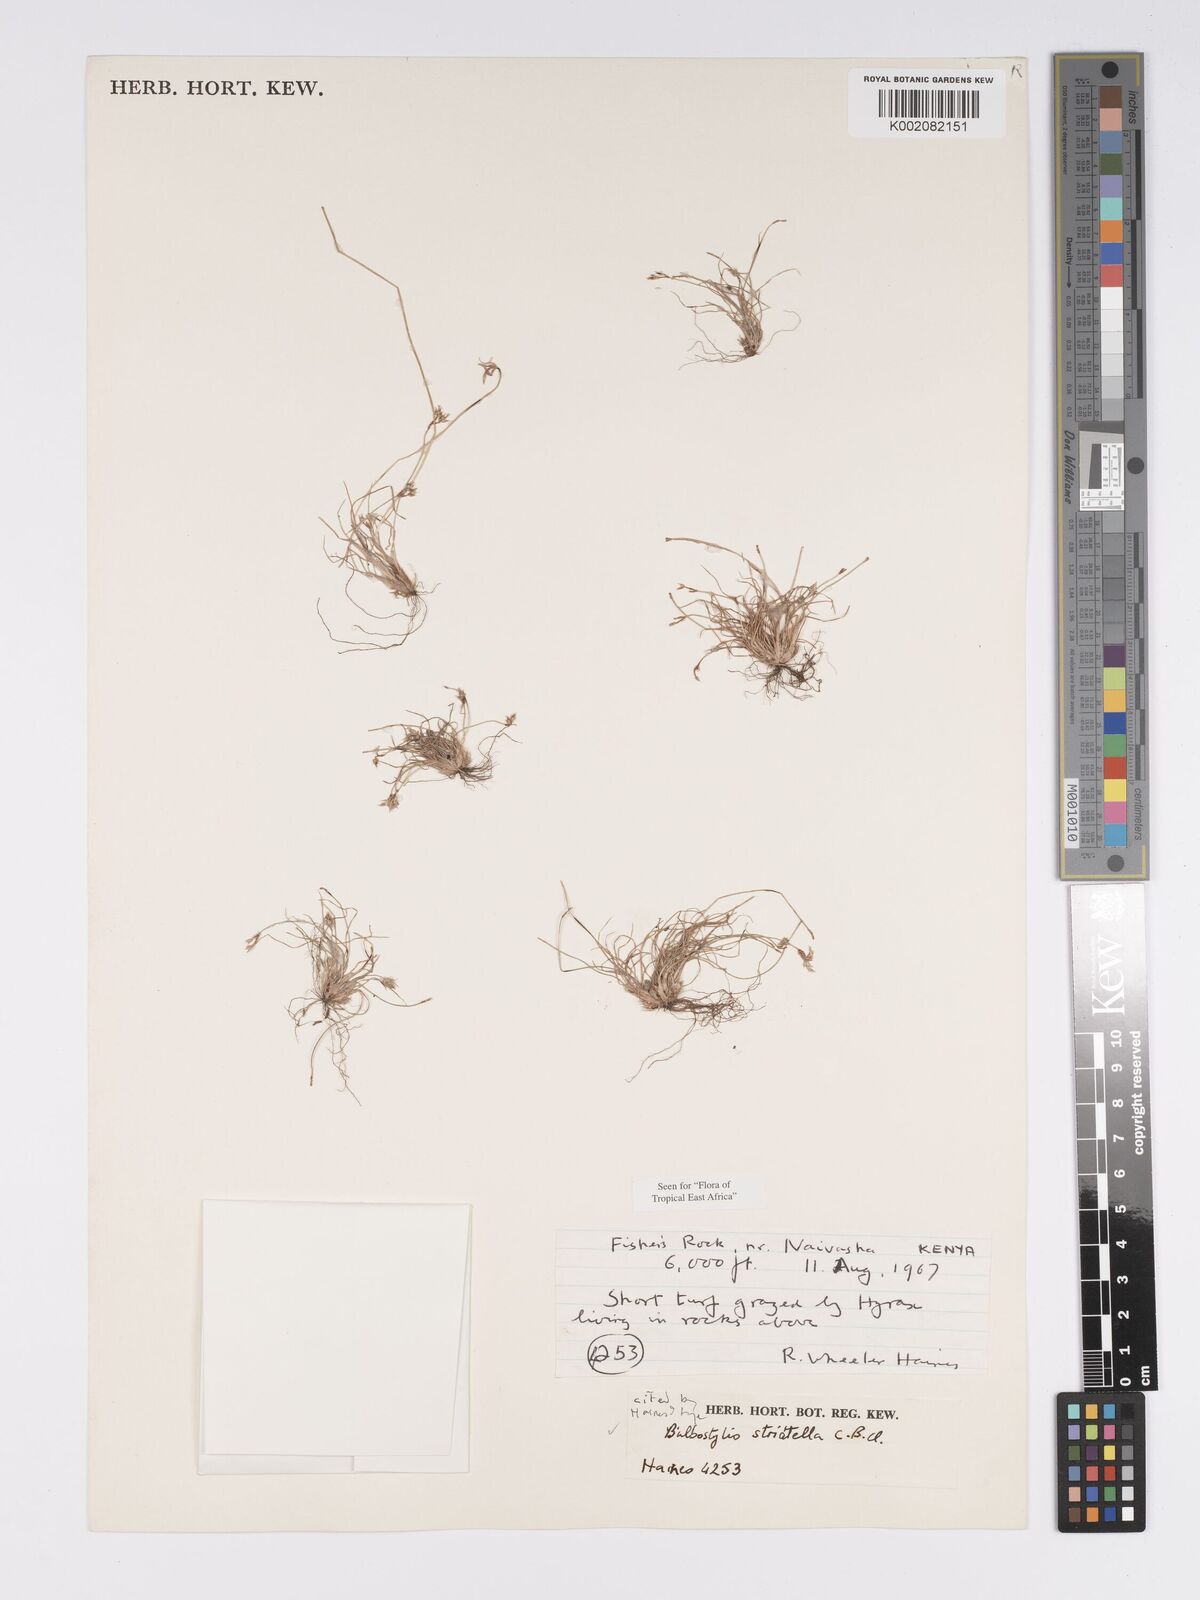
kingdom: Plantae
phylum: Tracheophyta
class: Liliopsida
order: Poales
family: Cyperaceae
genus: Bulbostylis
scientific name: Bulbostylis humilis
